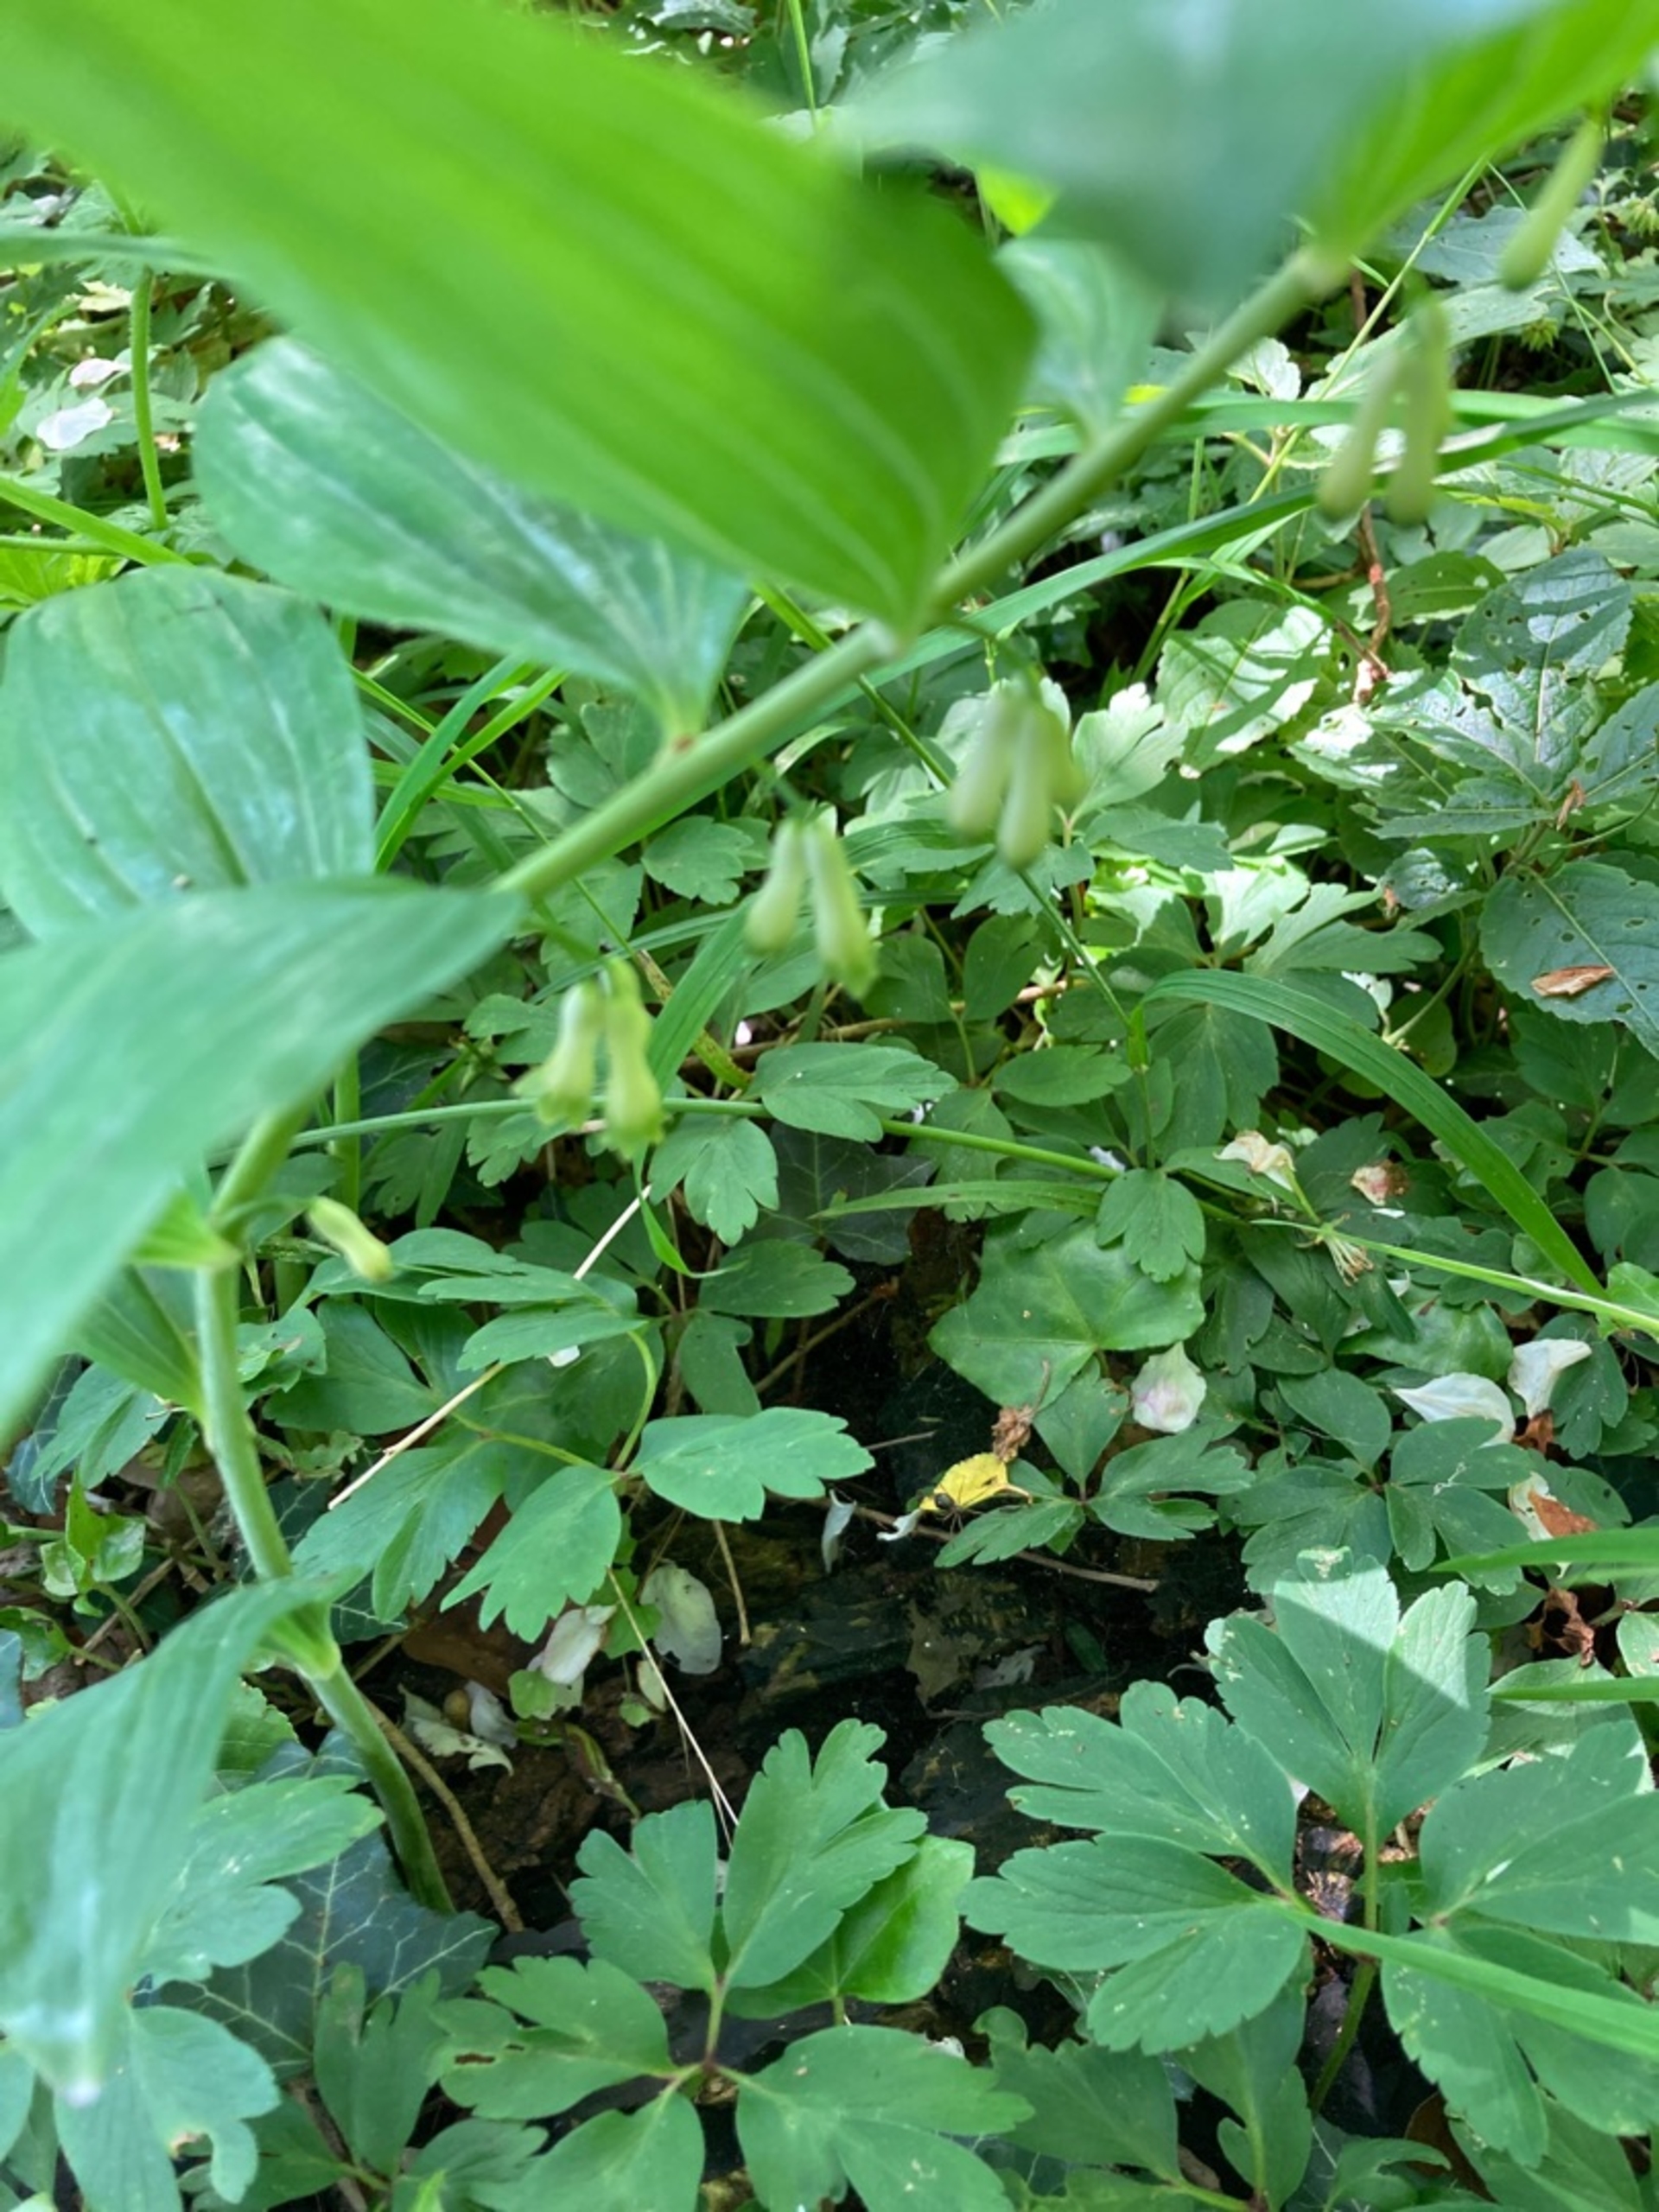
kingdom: Plantae
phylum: Tracheophyta
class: Liliopsida
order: Asparagales
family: Asparagaceae
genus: Polygonatum
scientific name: Polygonatum multiflorum
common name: Stor konval
